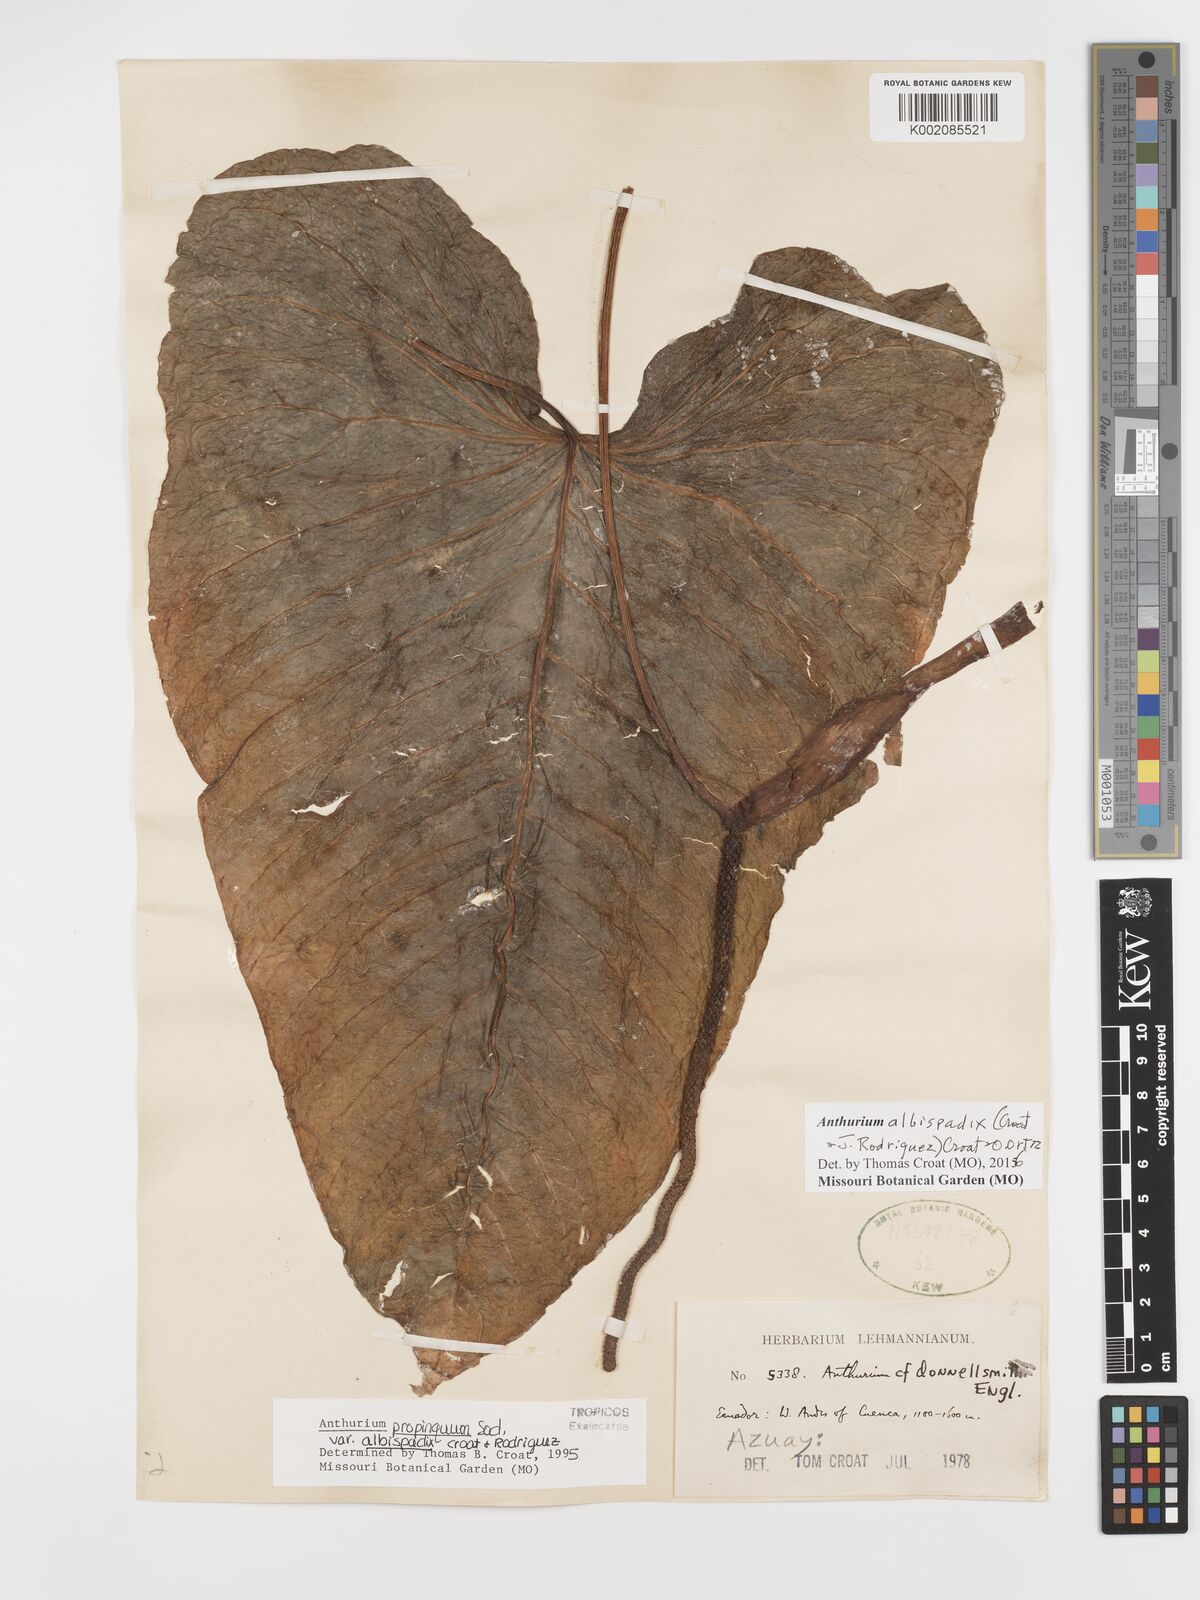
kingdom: Plantae
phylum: Tracheophyta
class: Liliopsida
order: Alismatales
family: Araceae
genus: Anthurium
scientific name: Anthurium albispadix
